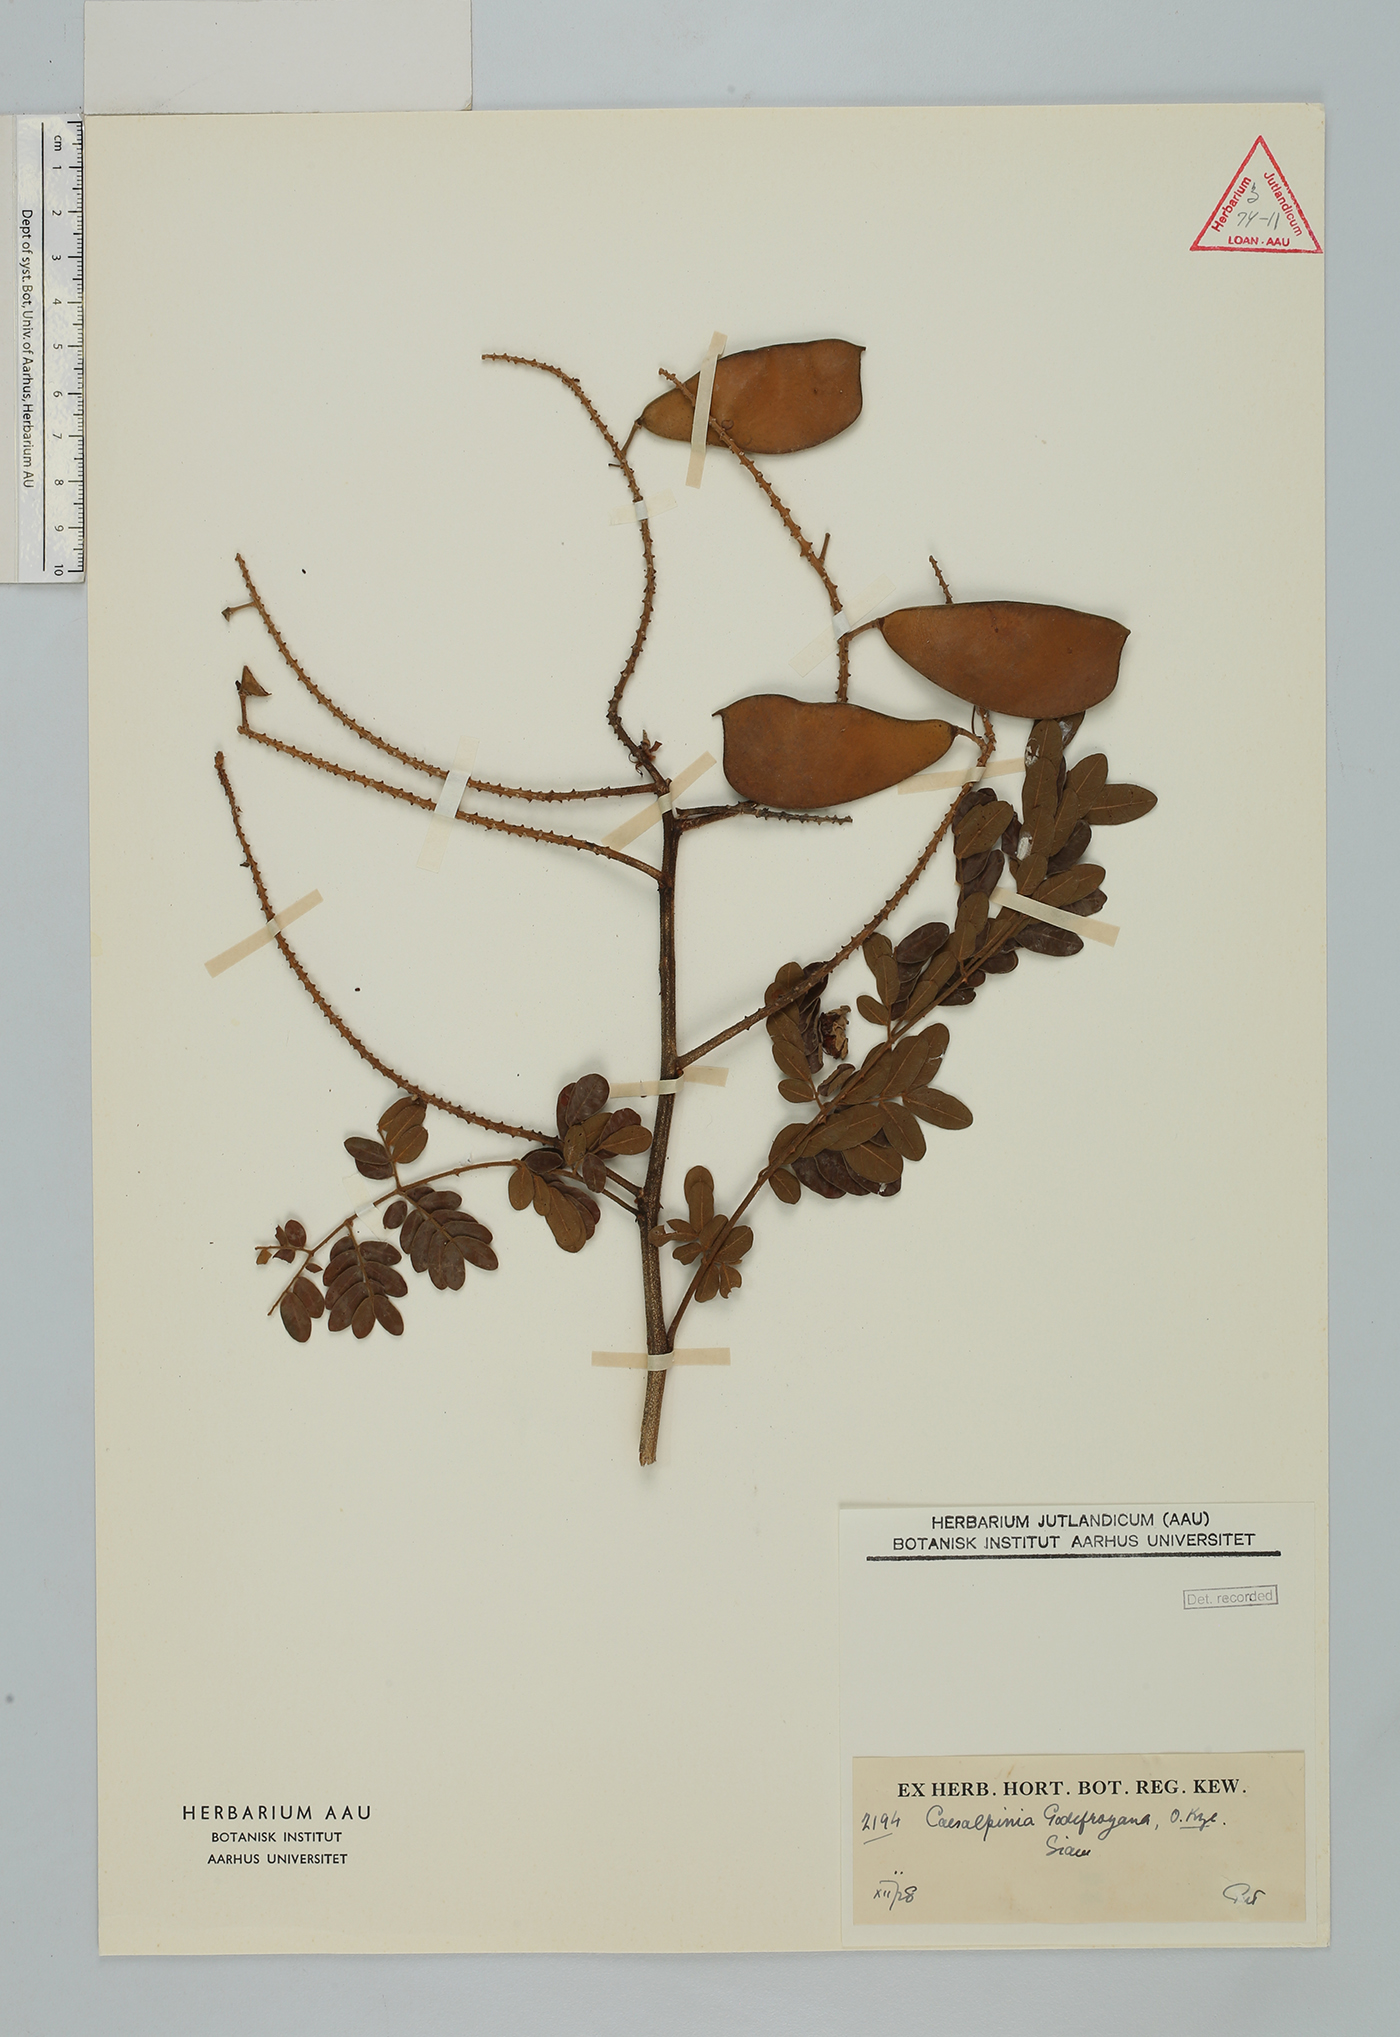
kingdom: Plantae
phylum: Tracheophyta
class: Magnoliopsida
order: Fabales
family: Fabaceae
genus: Biancaea
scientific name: Biancaea godefroyana
